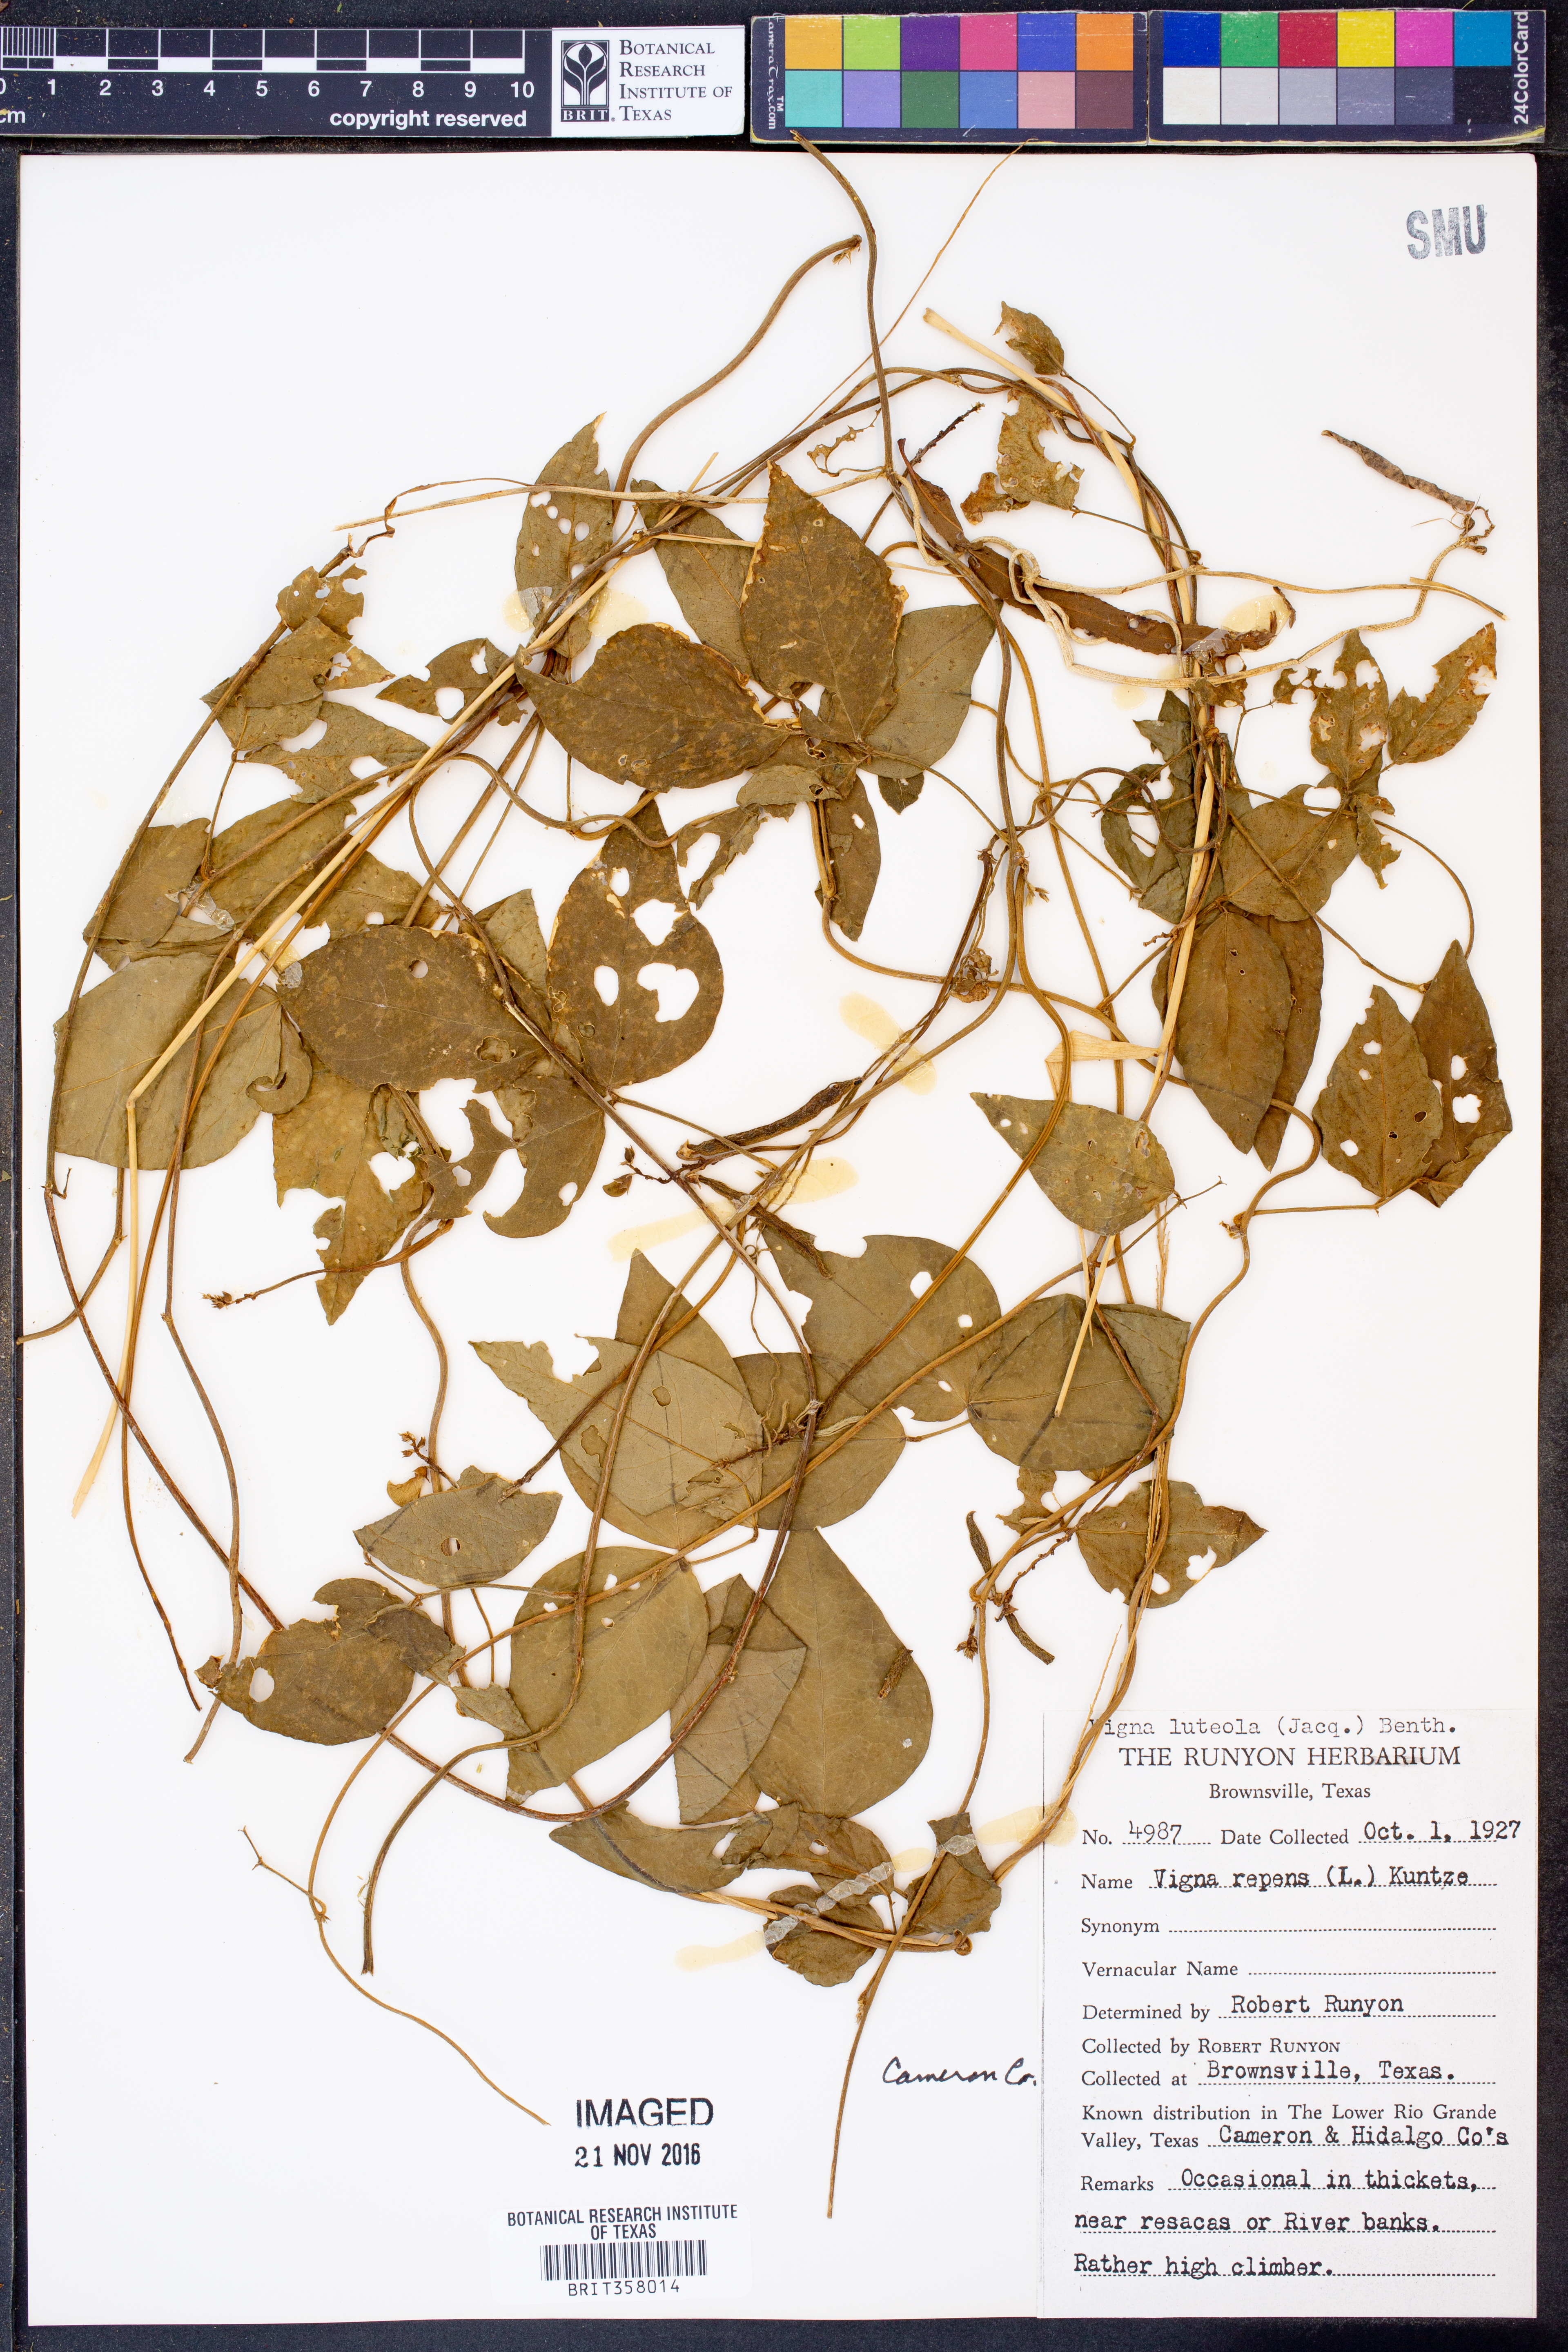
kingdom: Plantae
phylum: Tracheophyta
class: Magnoliopsida
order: Fabales
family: Fabaceae
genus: Vigna
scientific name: Vigna luteola
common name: Hairypod cowpea
